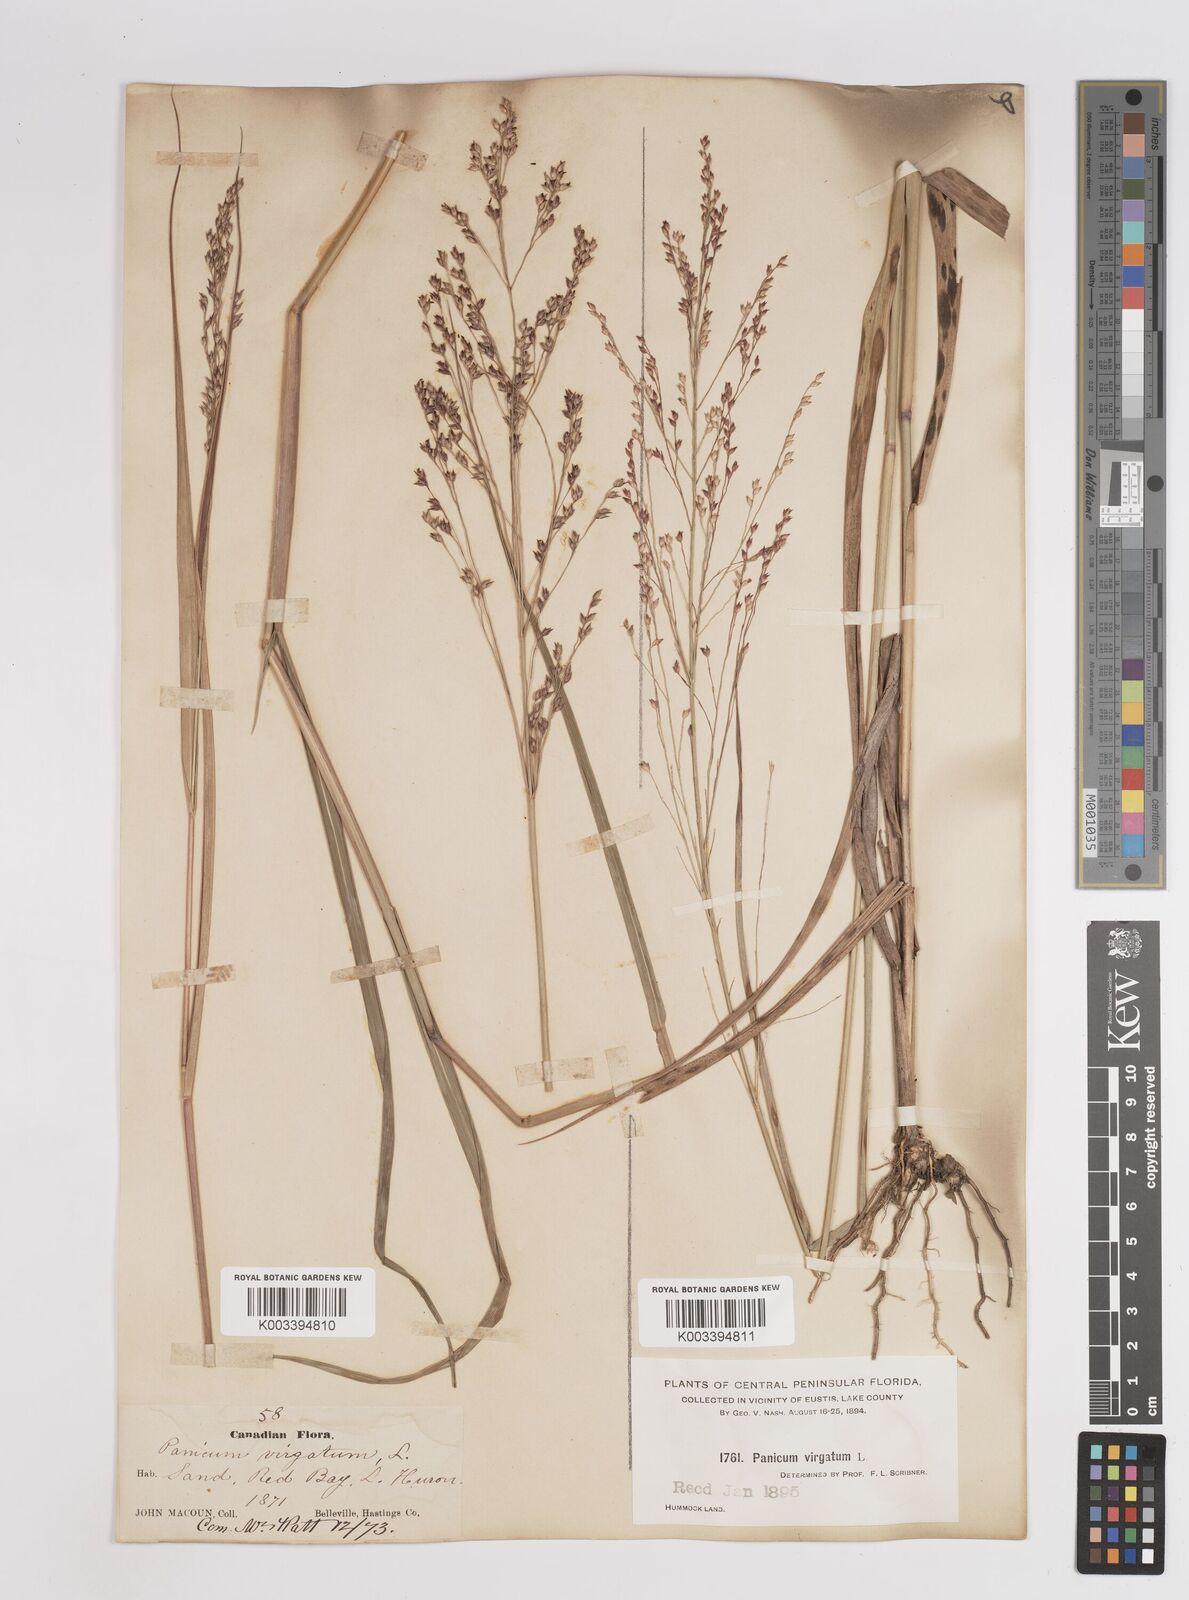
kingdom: Plantae
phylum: Tracheophyta
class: Liliopsida
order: Poales
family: Poaceae
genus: Panicum
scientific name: Panicum virgatum
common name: Switchgrass
